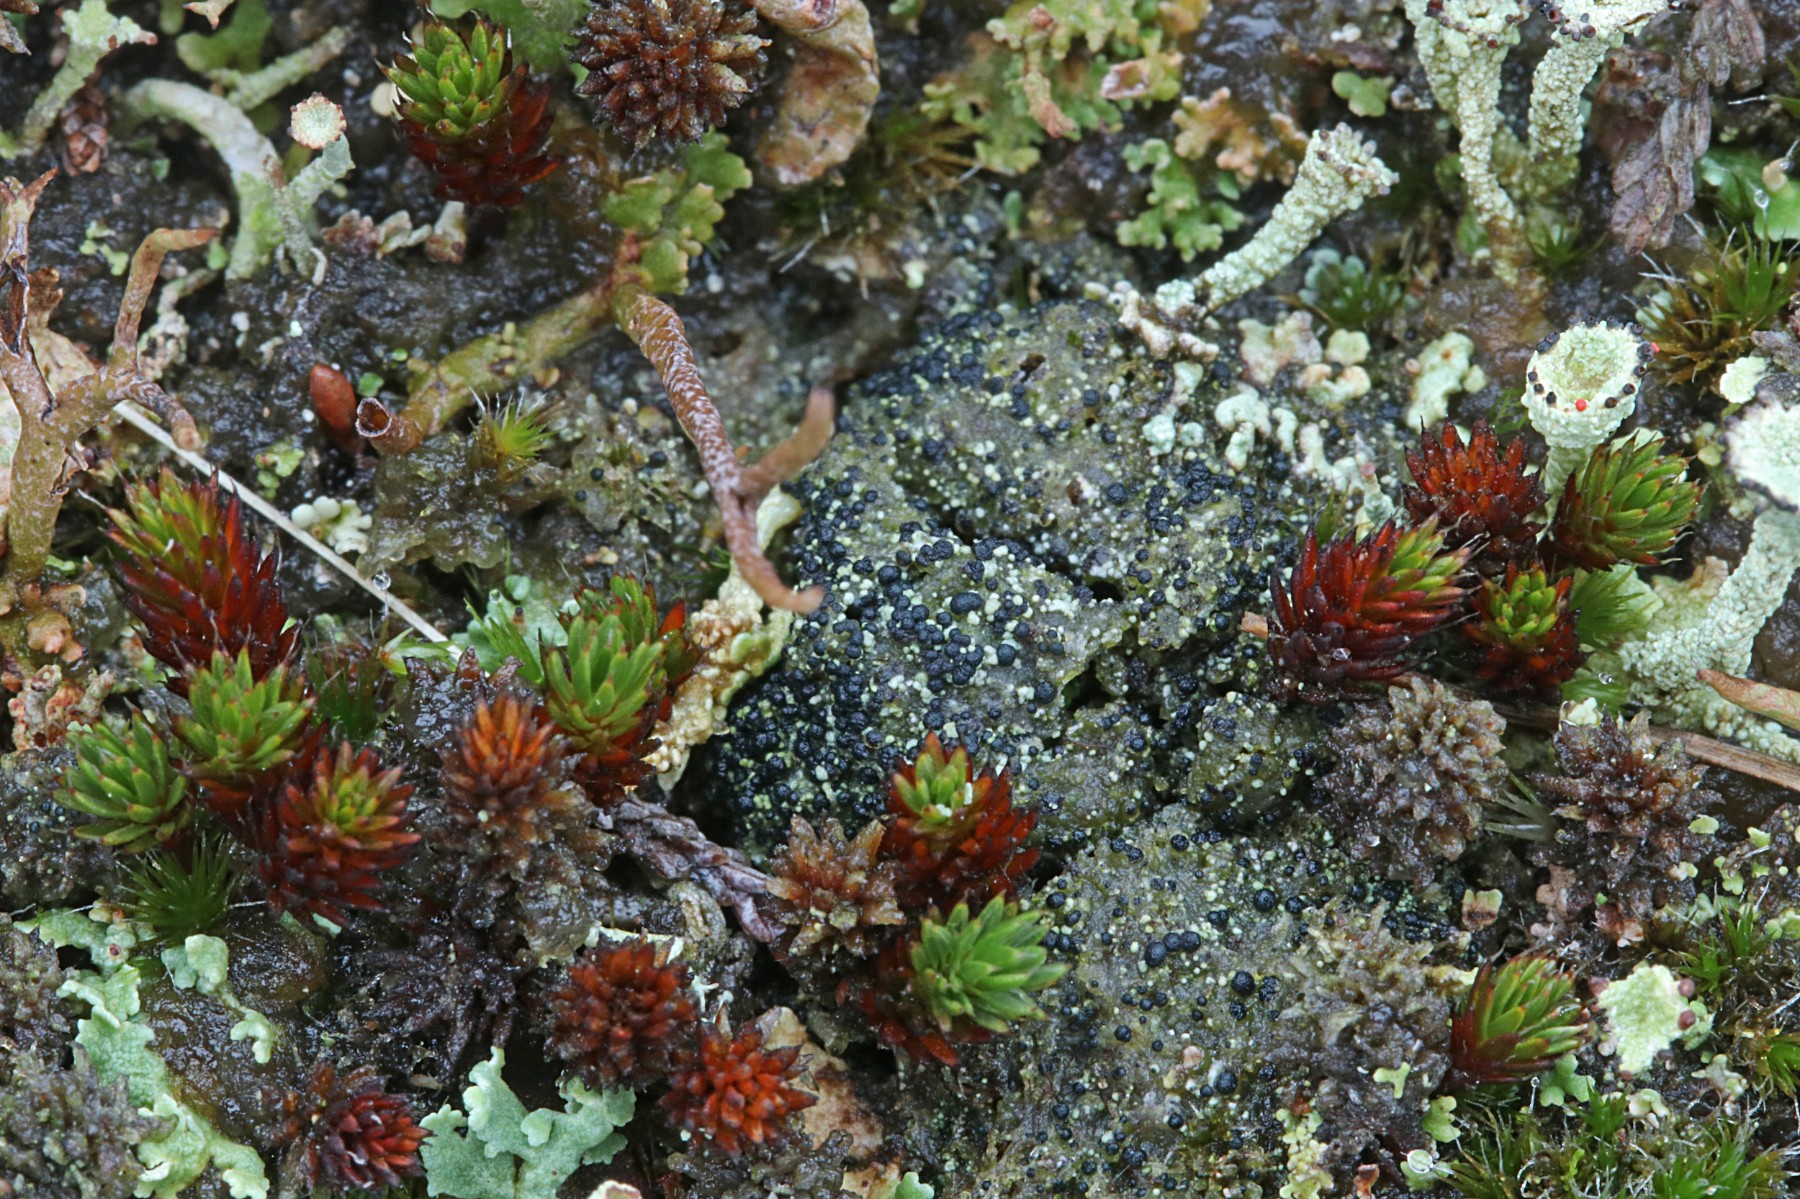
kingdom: Fungi
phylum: Ascomycota
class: Lecanoromycetes
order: Lecanorales
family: Byssolomataceae
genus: Micarea
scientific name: Micarea lignaria
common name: tørve-knaplav
